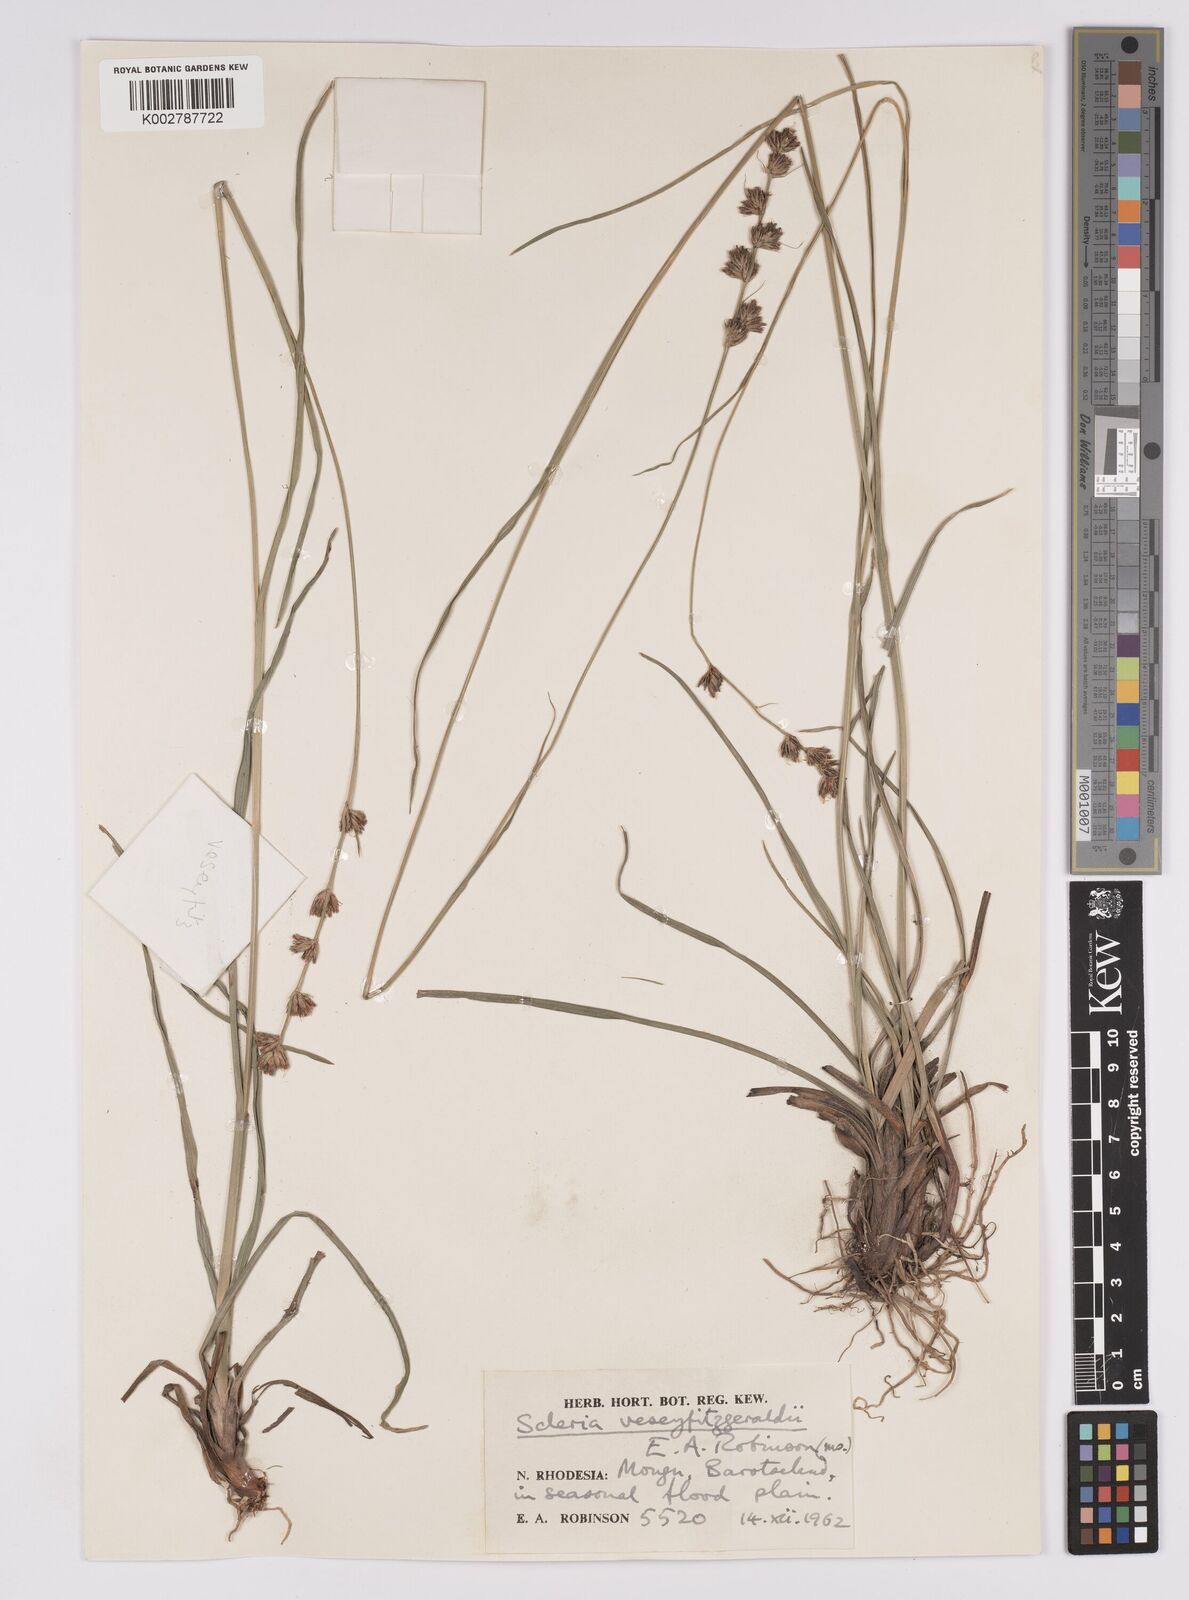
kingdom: Plantae
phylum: Tracheophyta
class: Liliopsida
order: Poales
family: Cyperaceae
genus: Scleria
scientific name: Scleria veseyfitzgeraldii
